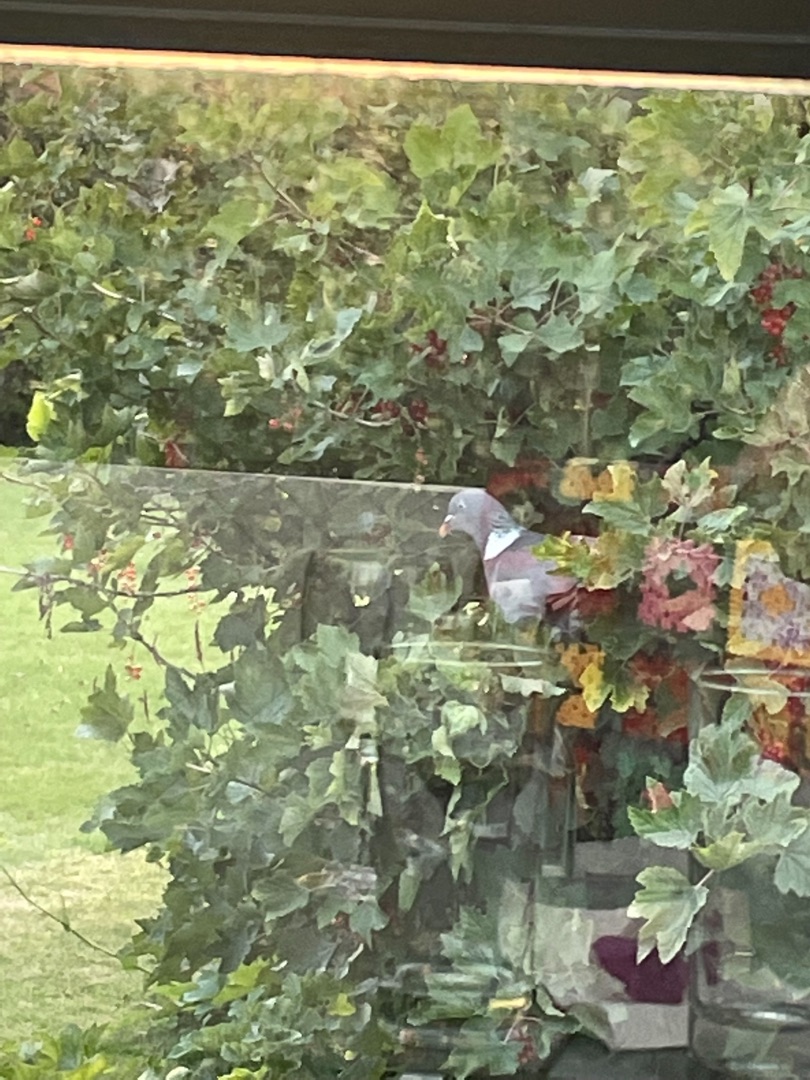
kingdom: Animalia
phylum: Chordata
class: Aves
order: Columbiformes
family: Columbidae
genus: Columba
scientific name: Columba palumbus
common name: Ringdue
